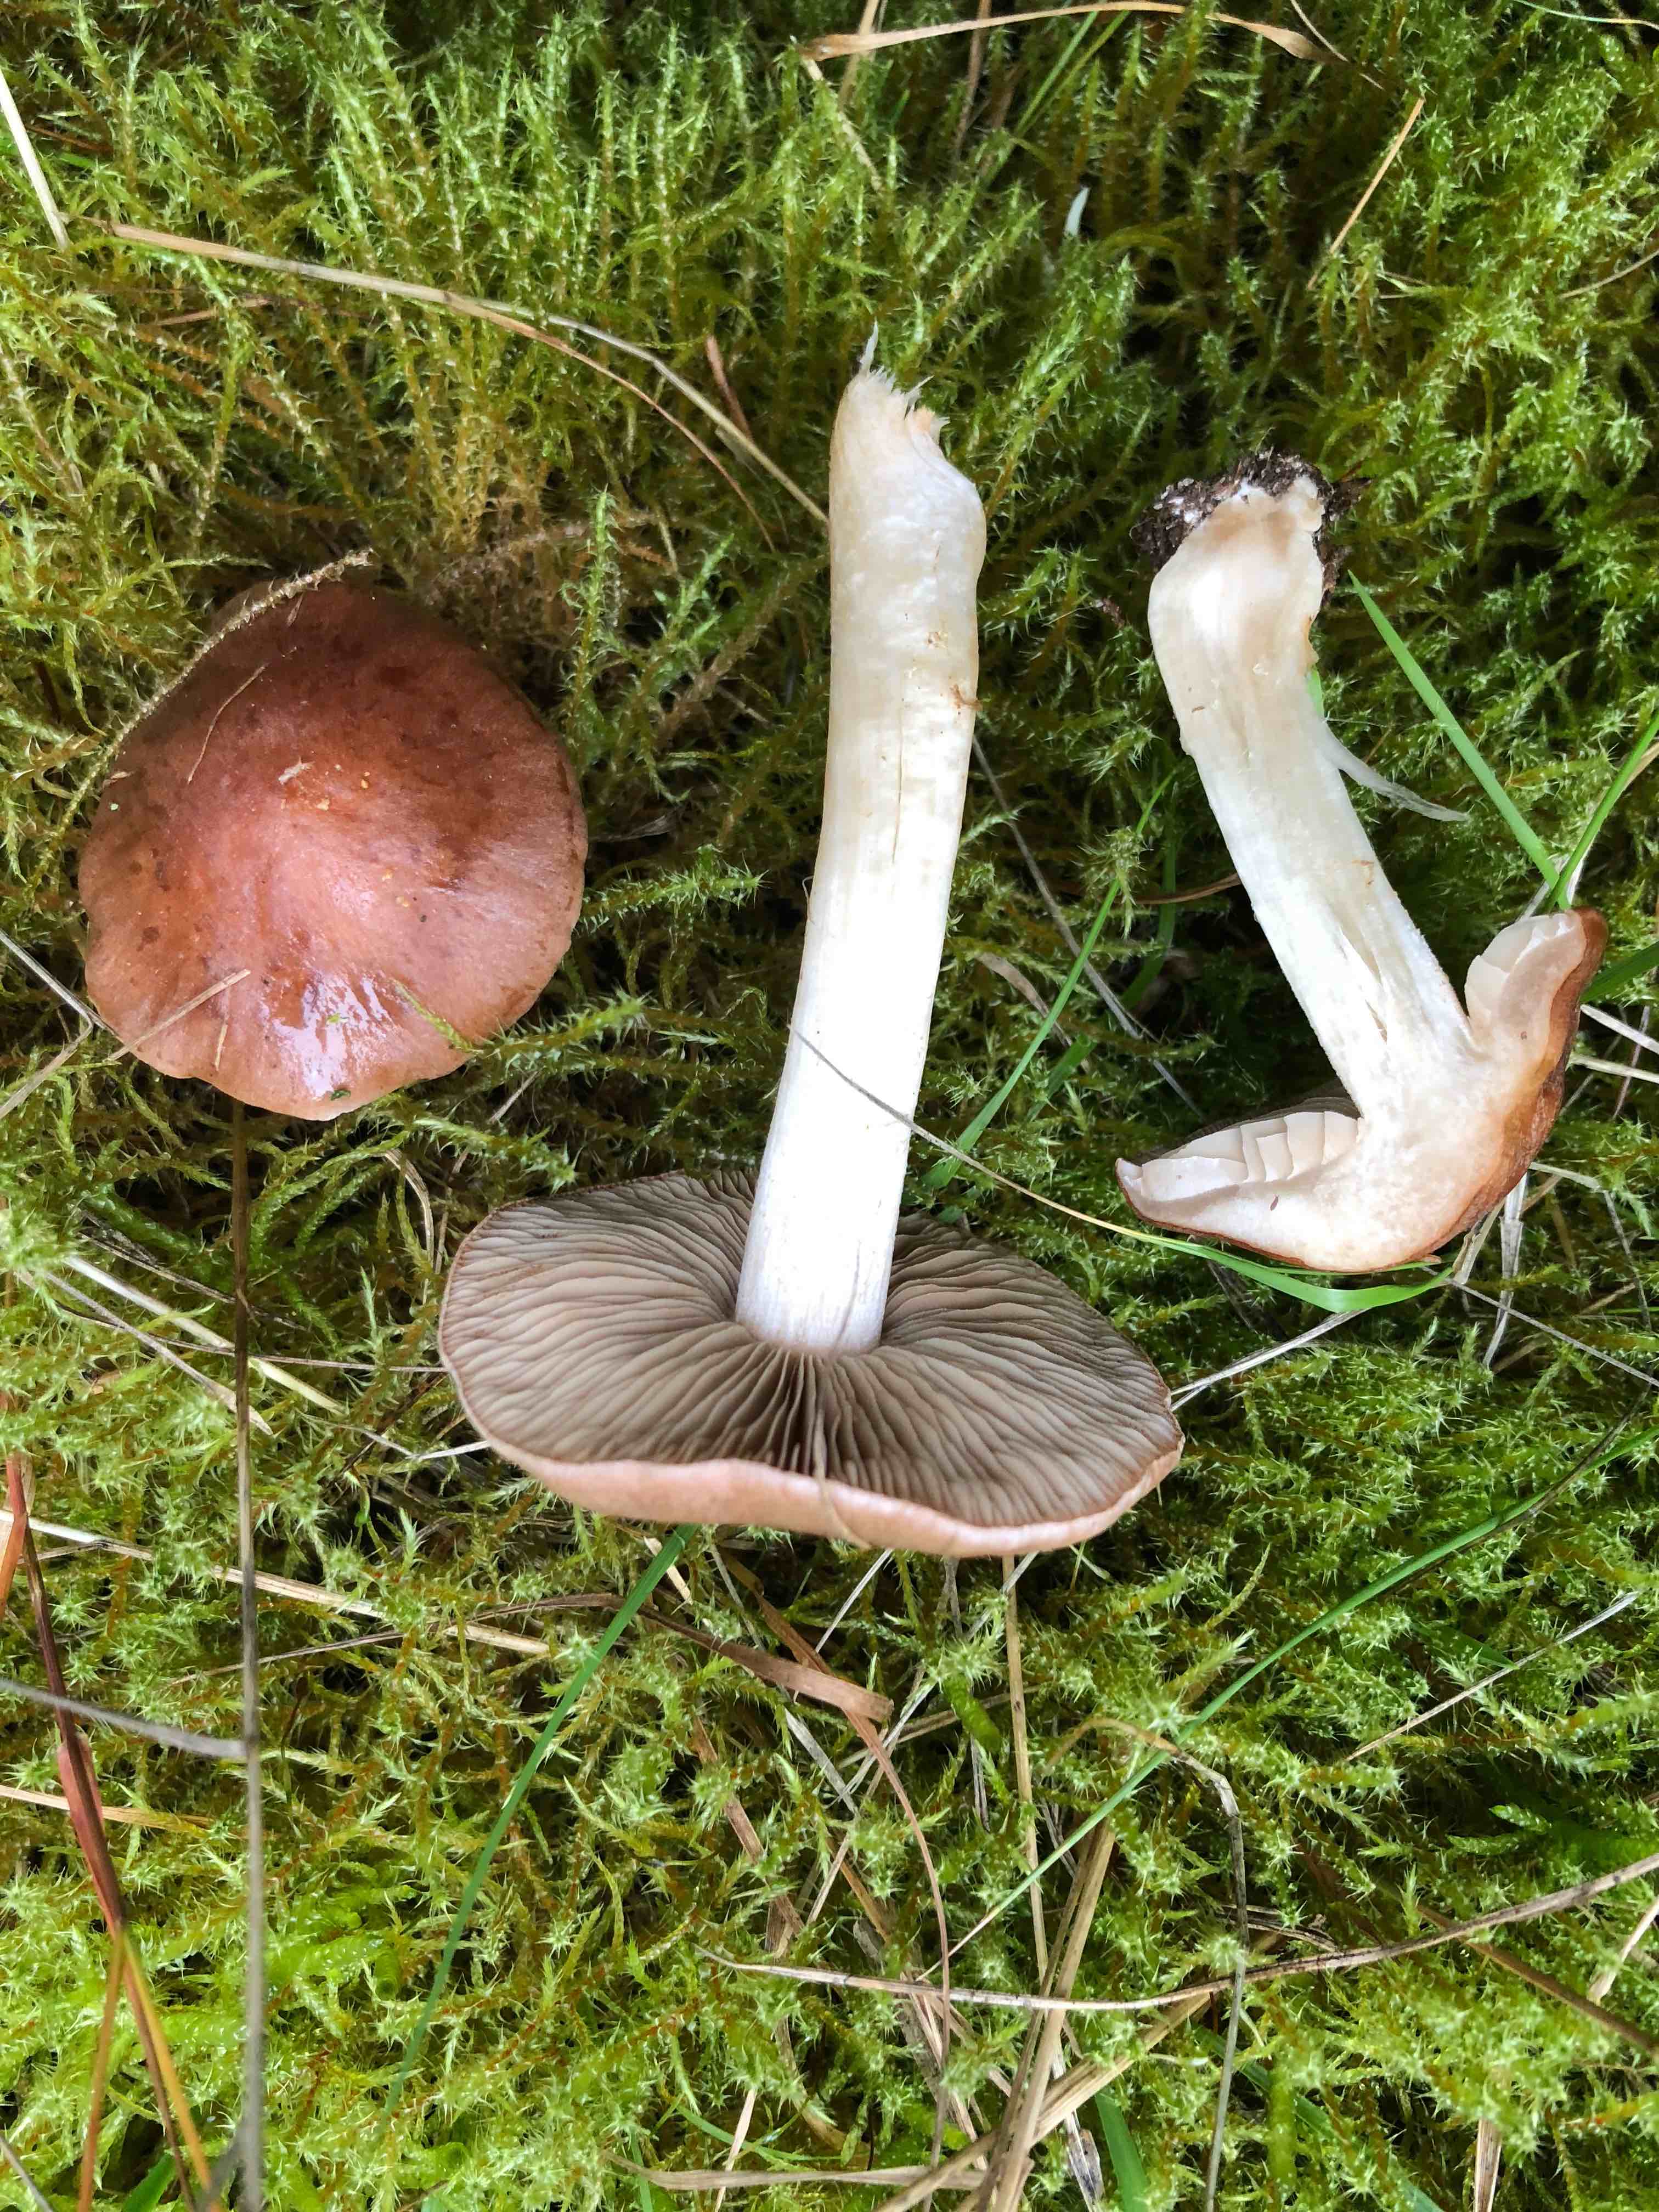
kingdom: Fungi
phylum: Basidiomycota
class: Agaricomycetes
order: Agaricales
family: Hymenogastraceae
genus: Hebeloma
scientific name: Hebeloma theobrominum
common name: rødbrun tåreblad
